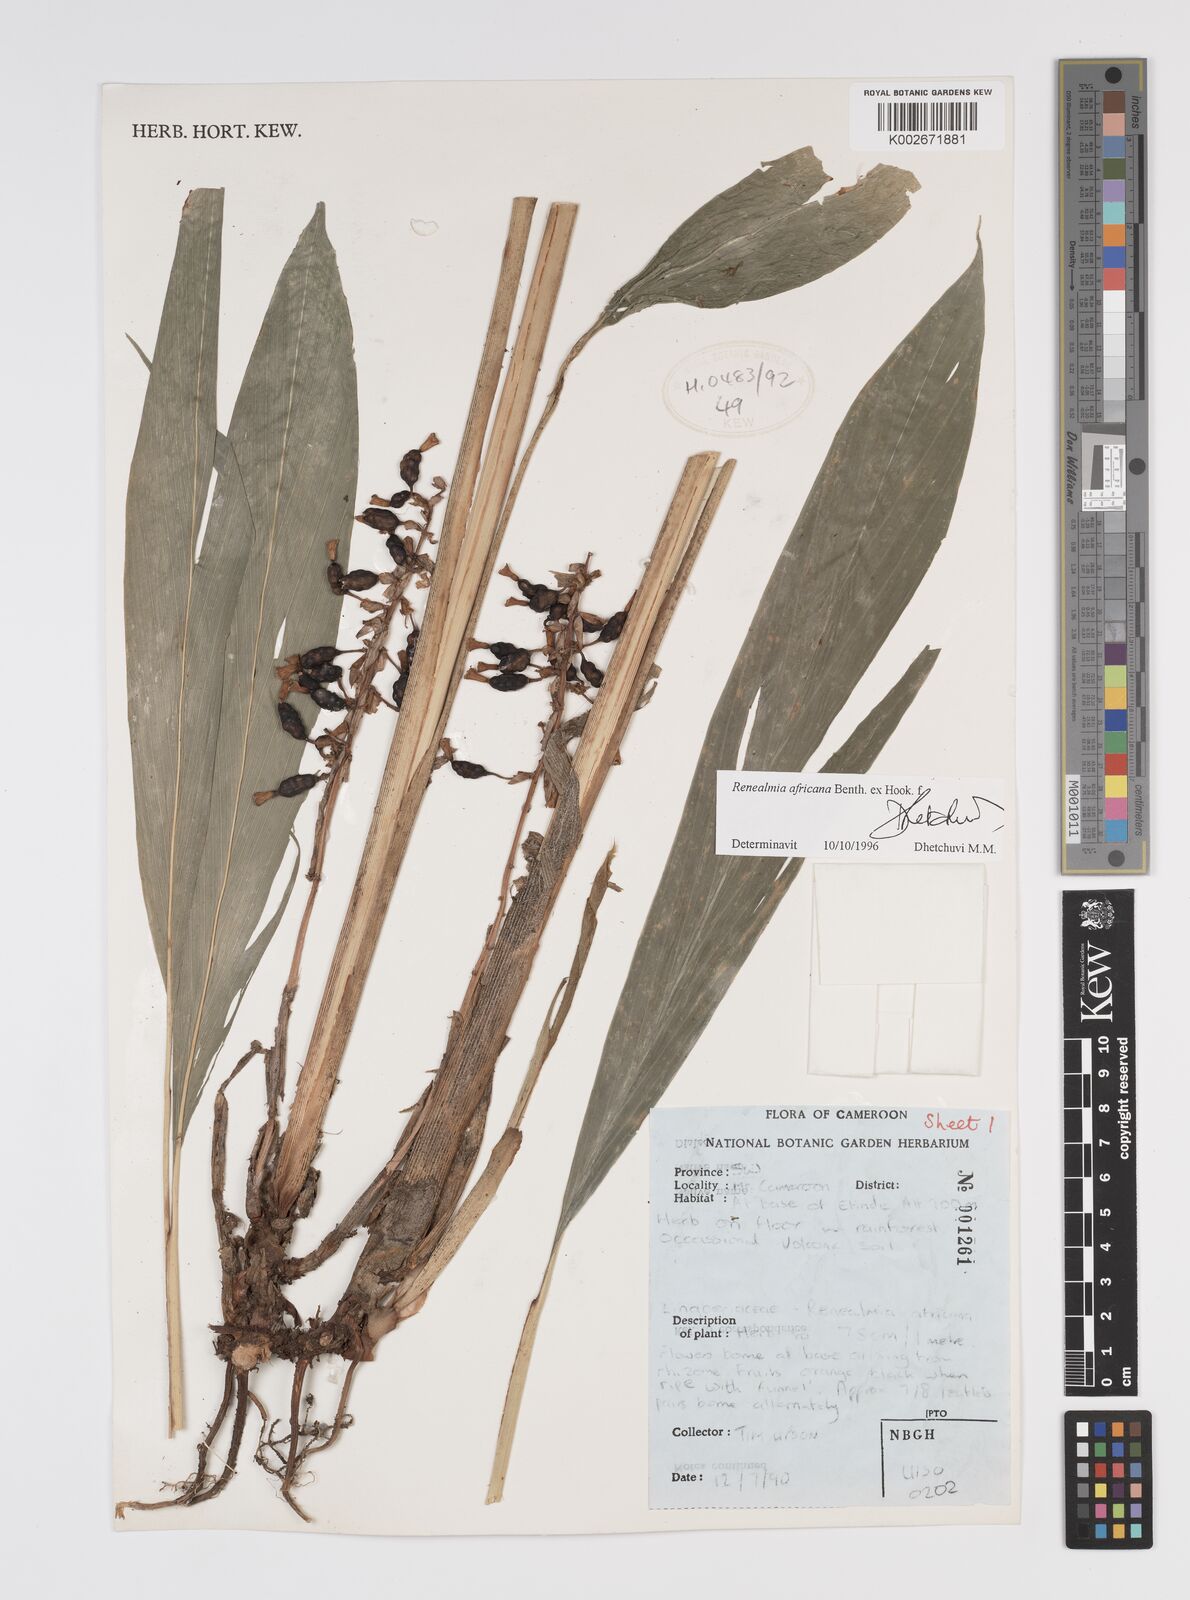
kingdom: Plantae
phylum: Tracheophyta
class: Liliopsida
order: Zingiberales
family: Zingiberaceae
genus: Renealmia
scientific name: Renealmia africana
